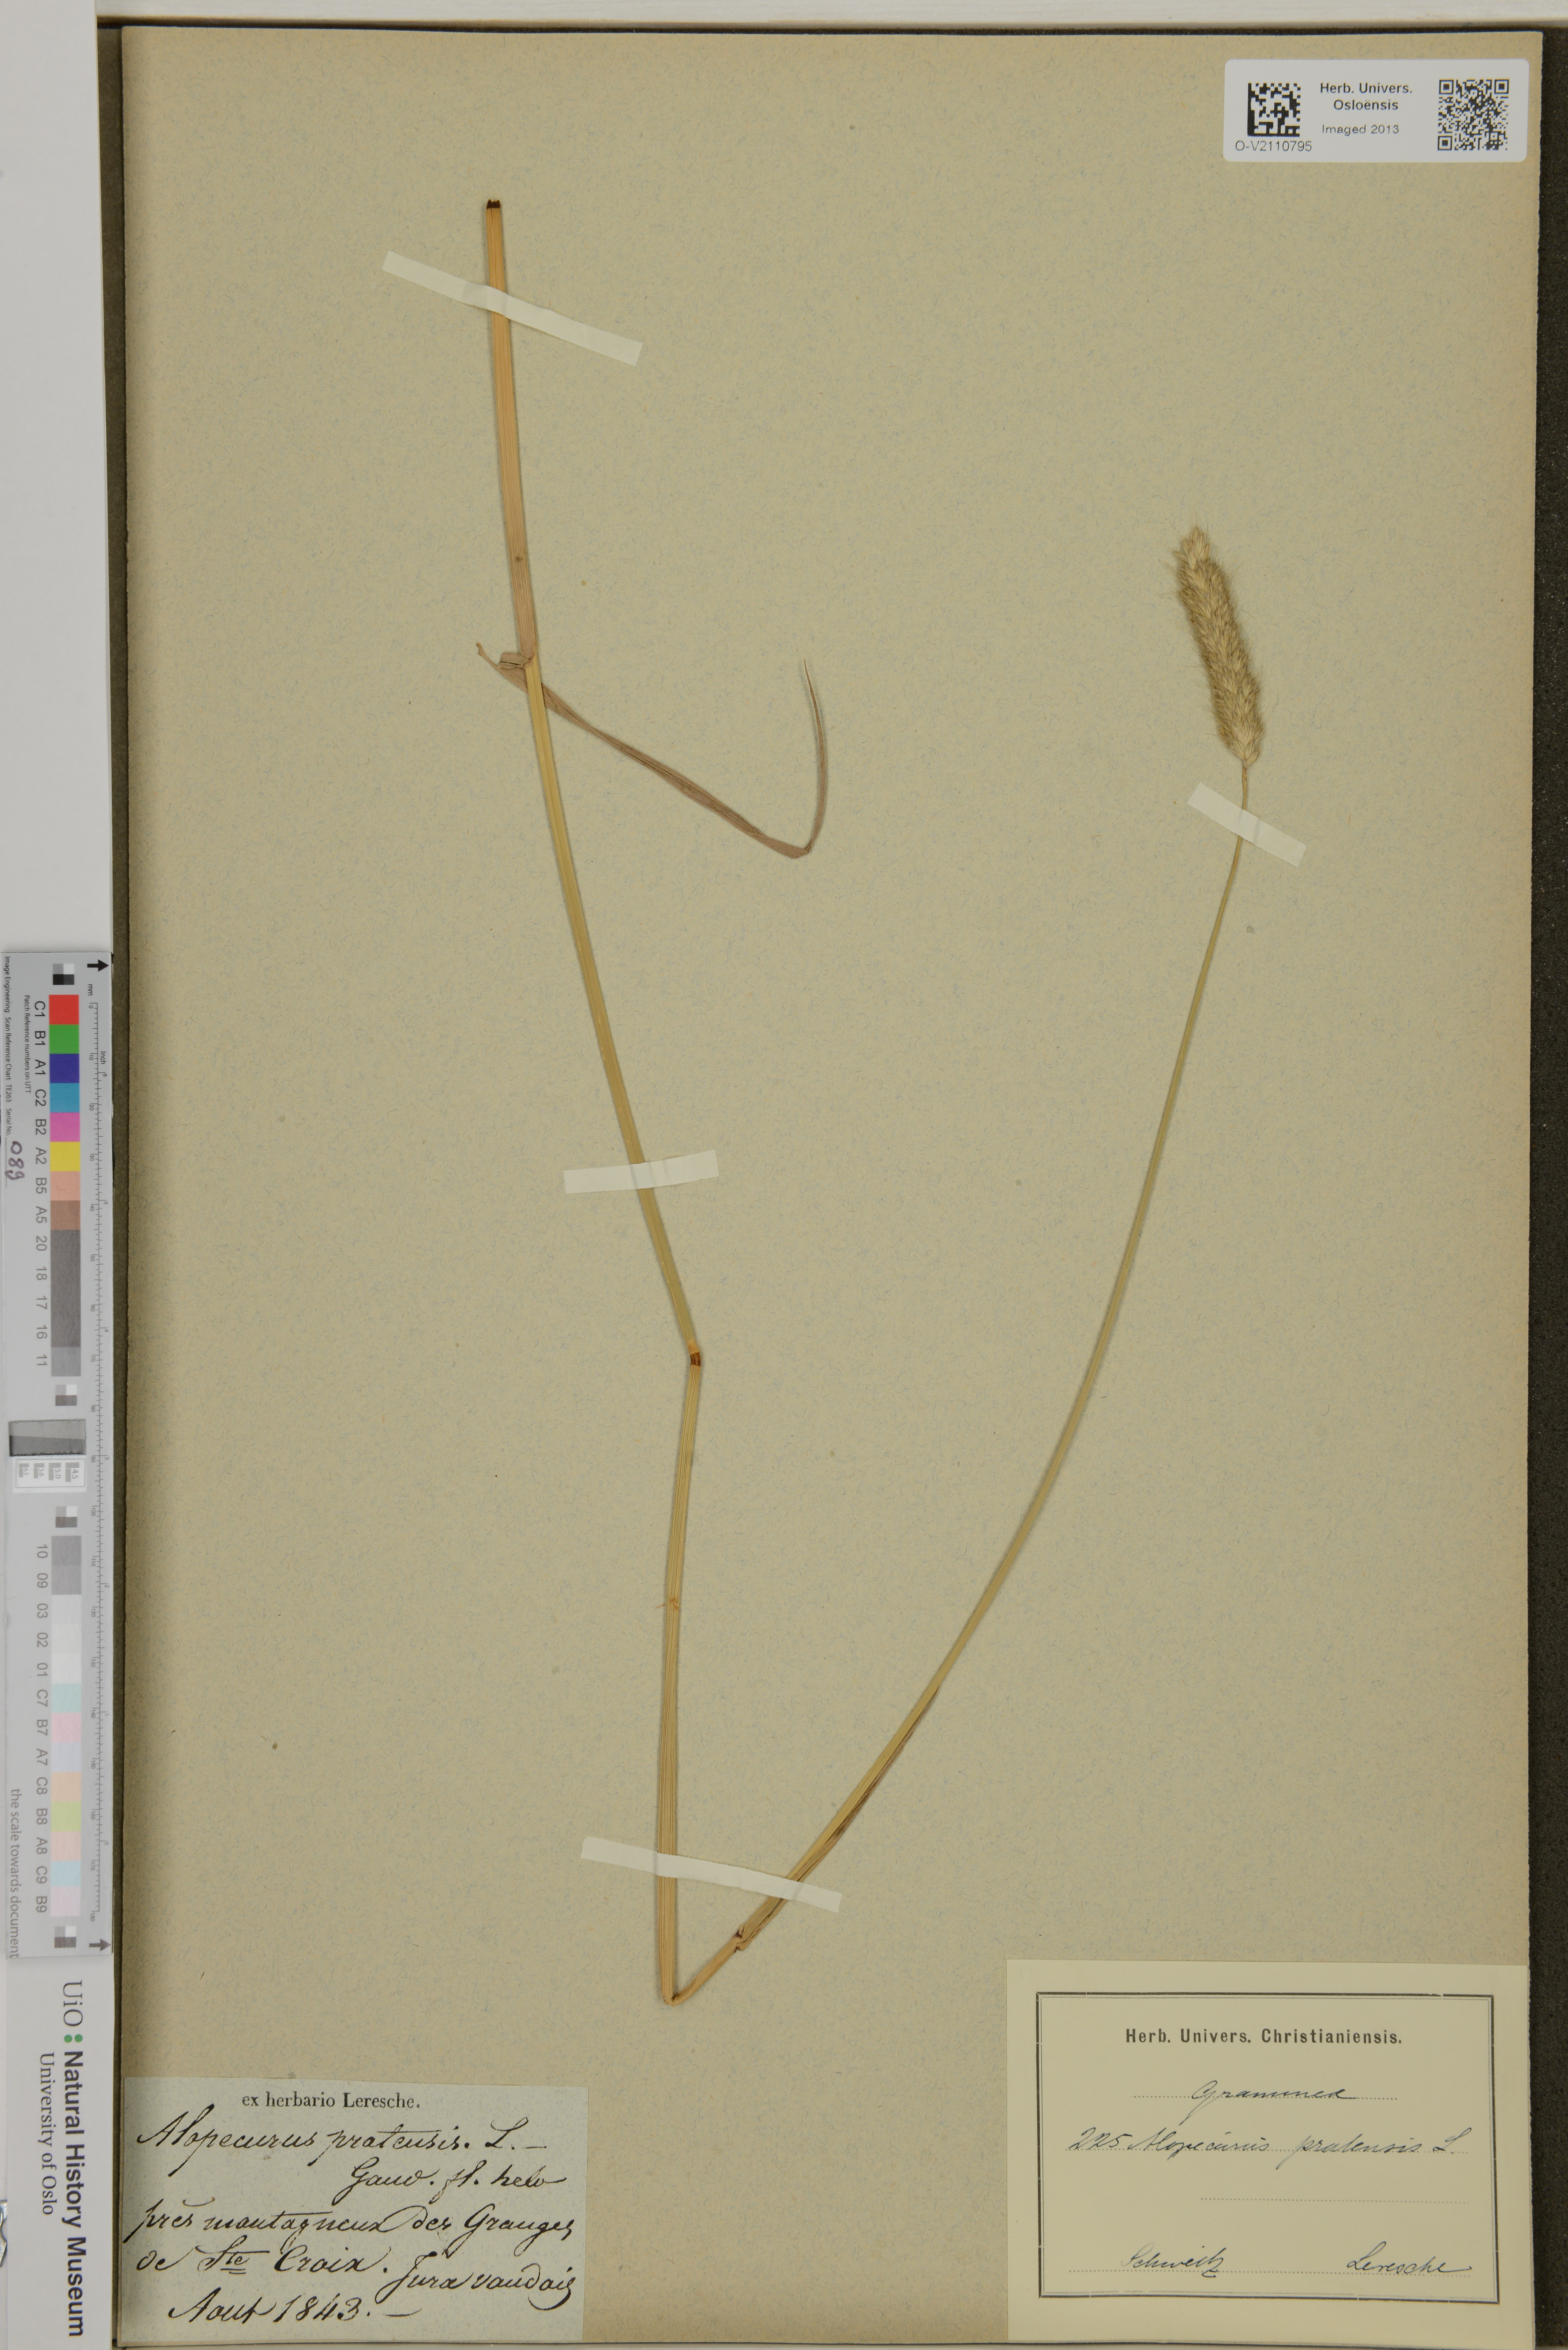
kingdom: Plantae
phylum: Tracheophyta
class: Liliopsida
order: Poales
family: Poaceae
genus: Alopecurus
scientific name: Alopecurus pratensis
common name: Meadow foxtail
